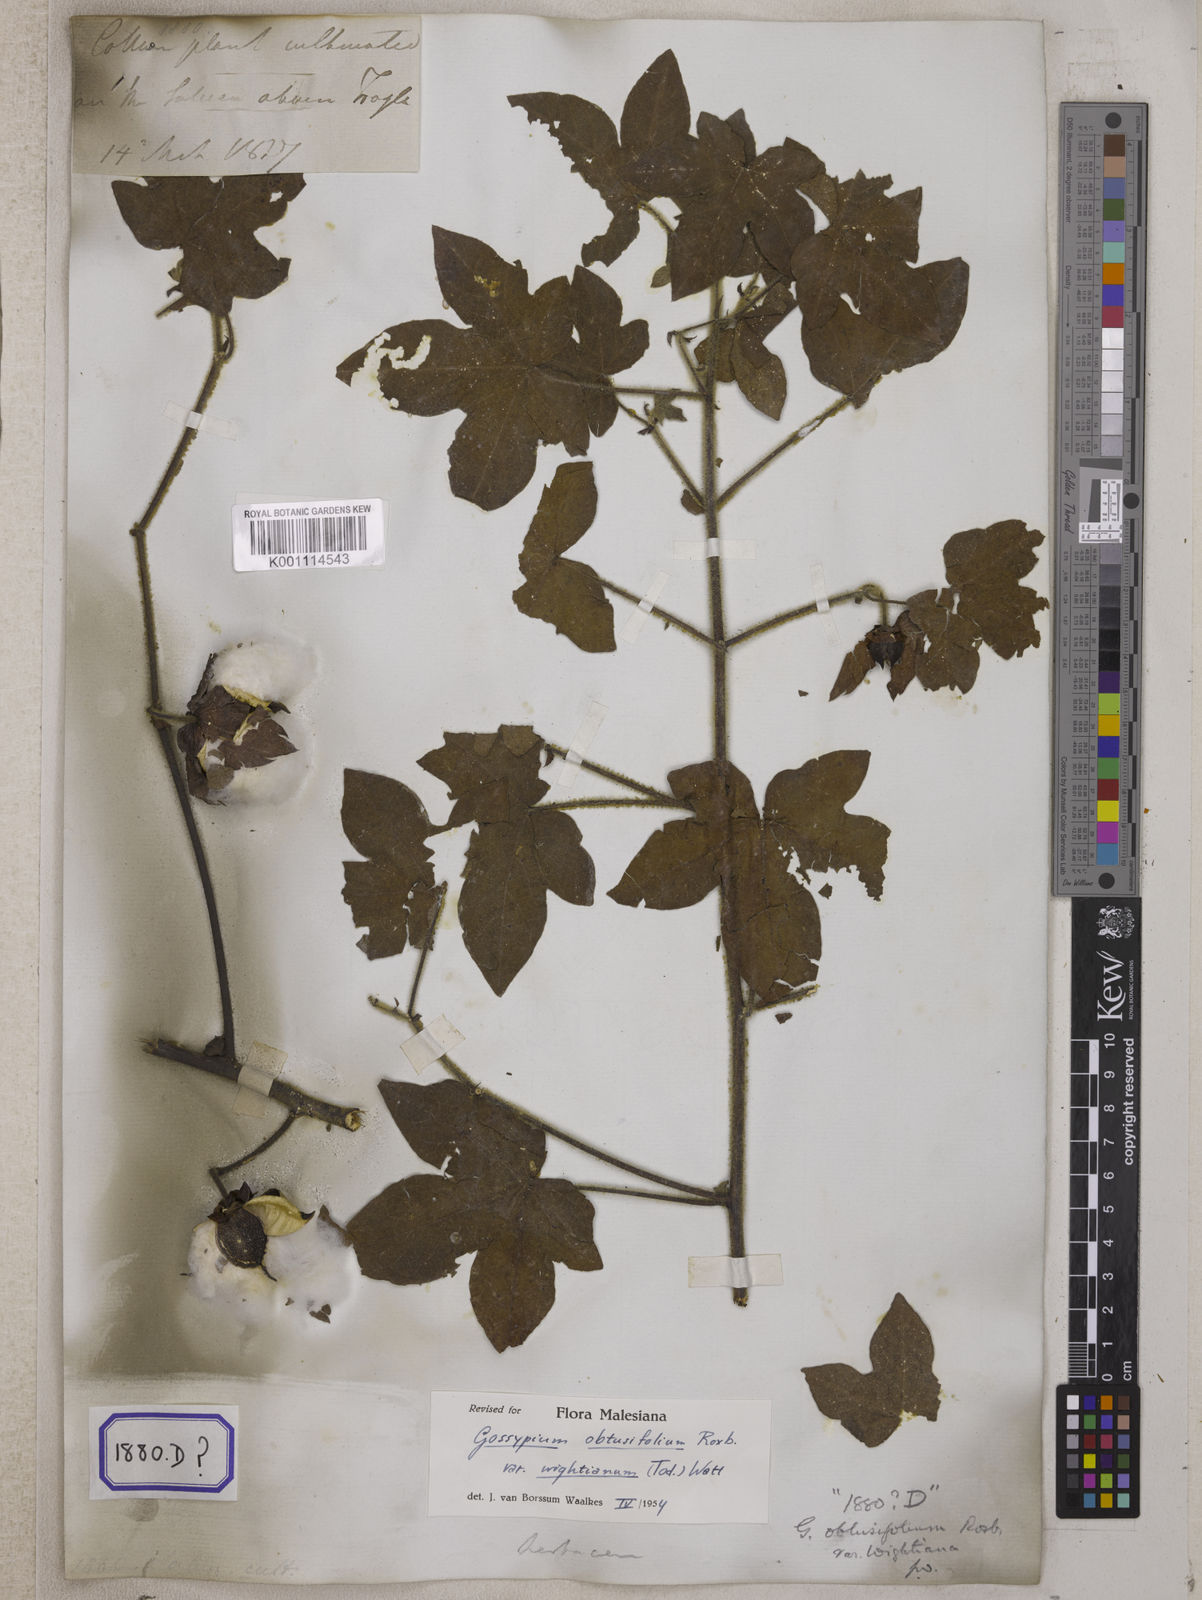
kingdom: Plantae
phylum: Tracheophyta
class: Magnoliopsida
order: Malvales
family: Malvaceae
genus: Gossypium
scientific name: Gossypium herbaceum
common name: Levant cotton
